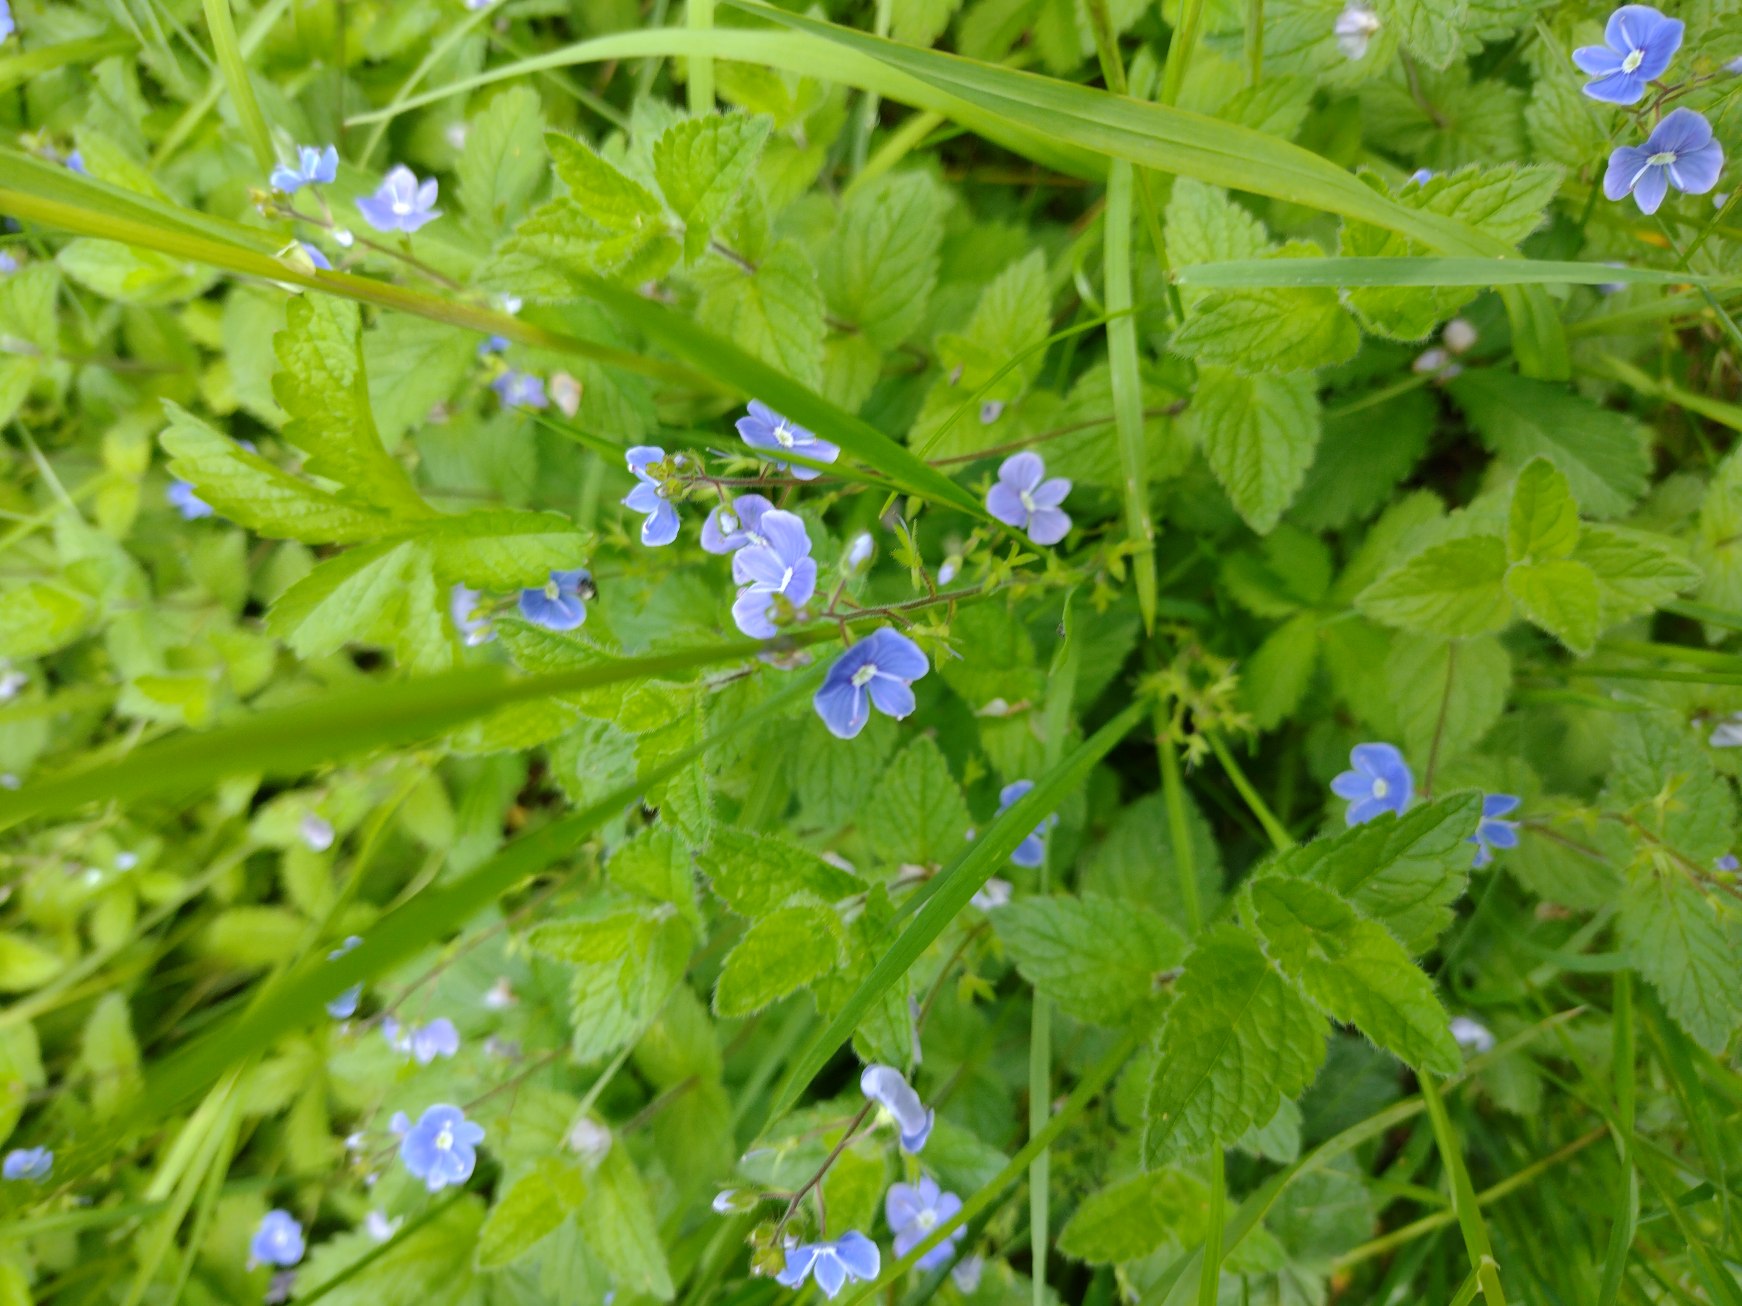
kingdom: Plantae
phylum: Tracheophyta
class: Magnoliopsida
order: Lamiales
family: Plantaginaceae
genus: Veronica
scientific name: Veronica chamaedrys
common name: Tveskægget ærenpris
